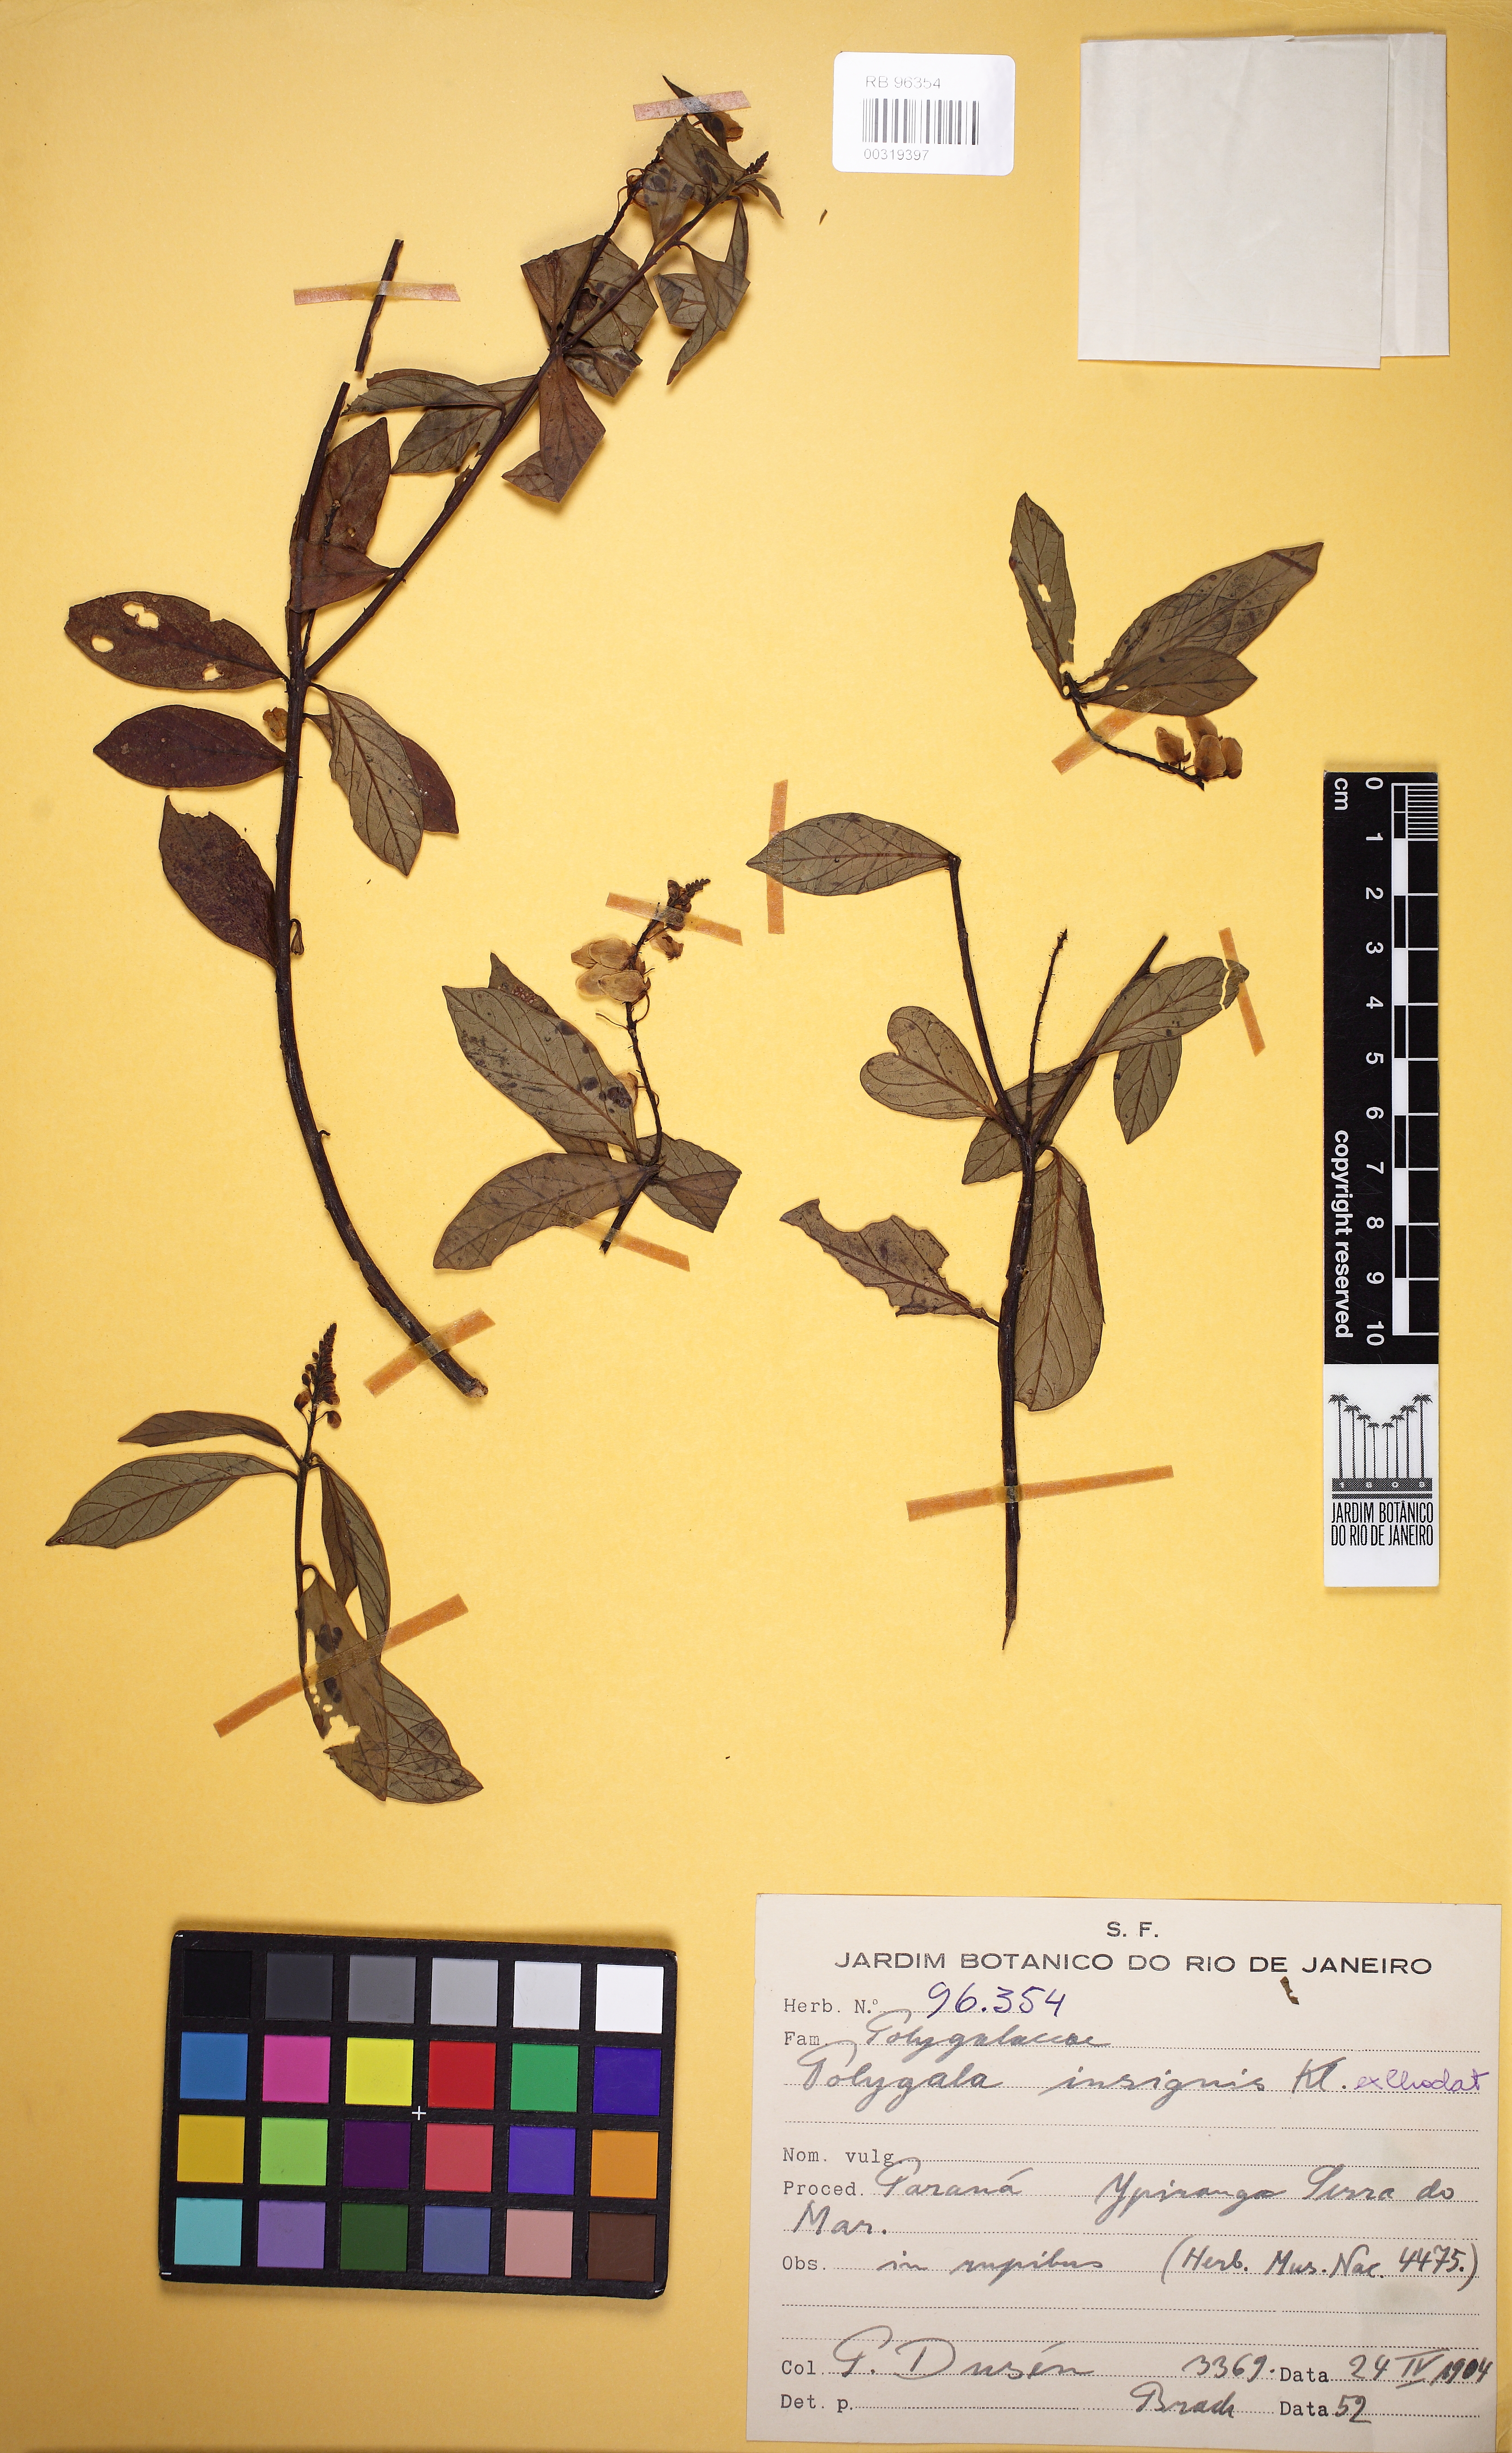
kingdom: Plantae
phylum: Tracheophyta
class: Magnoliopsida
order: Fabales
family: Polygalaceae
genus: Caamembeca
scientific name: Caamembeca insignis
